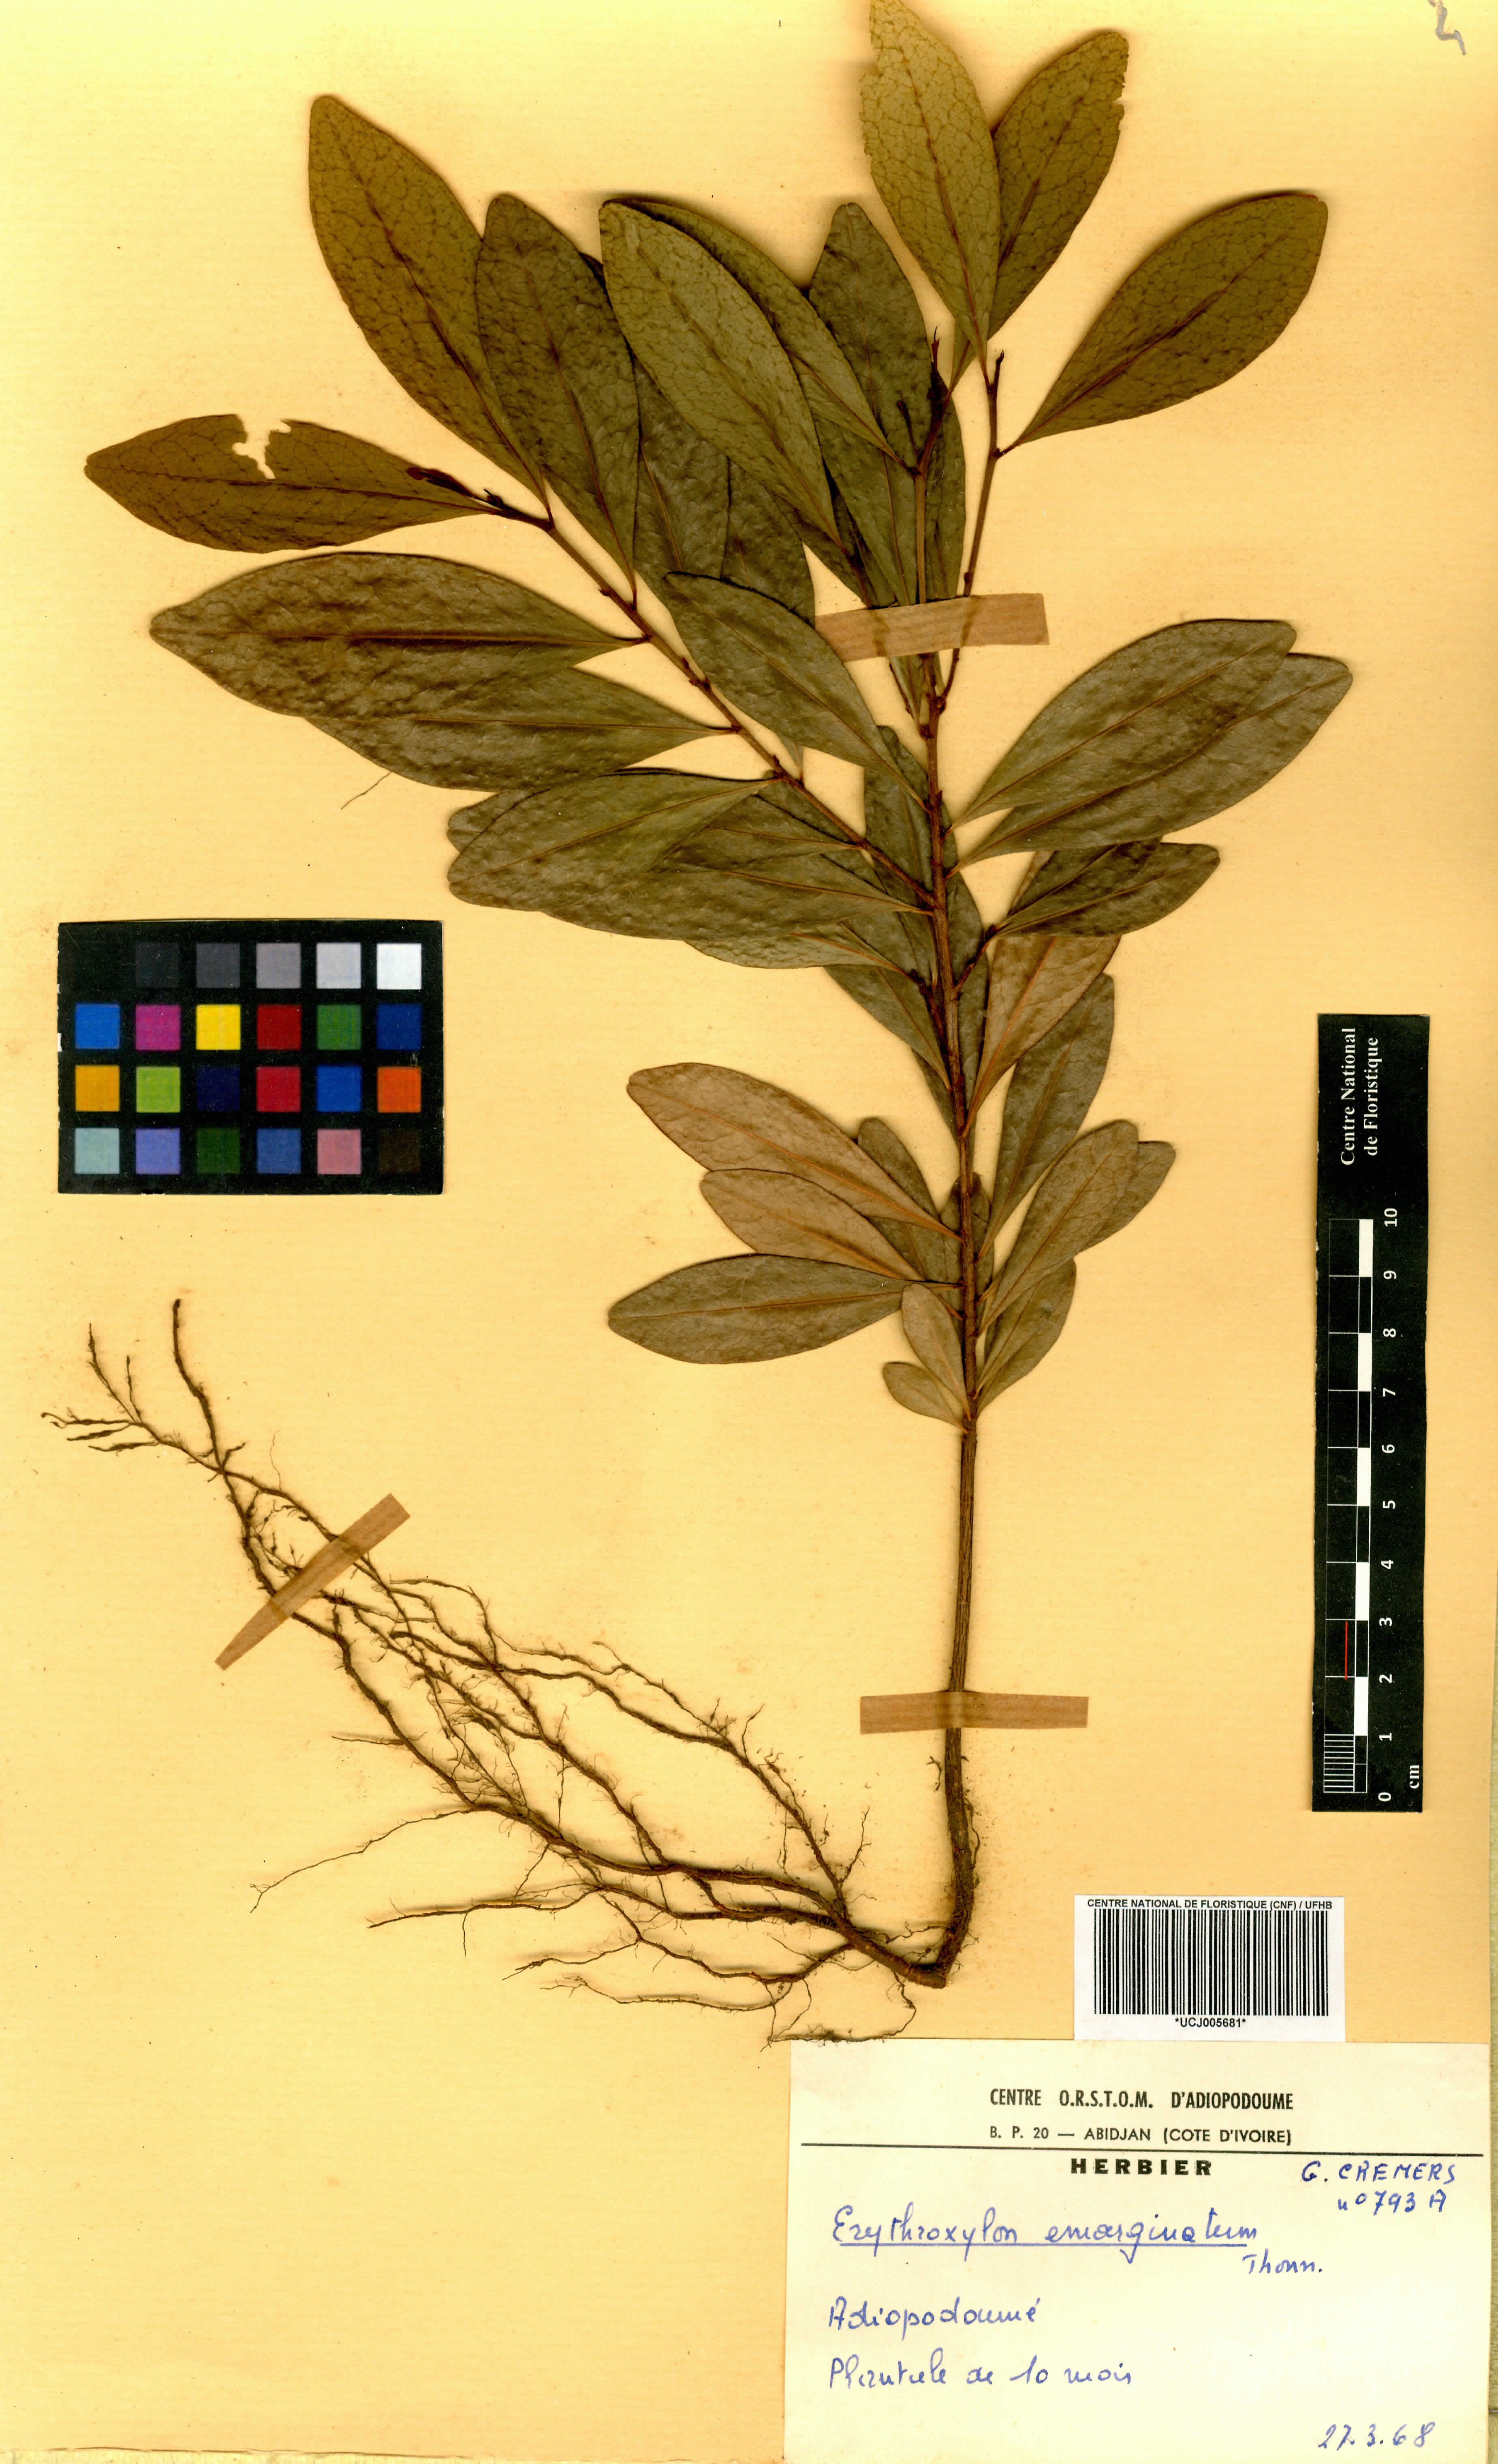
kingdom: Plantae
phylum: Tracheophyta
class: Magnoliopsida
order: Malpighiales
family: Erythroxylaceae
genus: Erythroxylum
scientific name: Erythroxylum emarginatum
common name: African coca-tree
